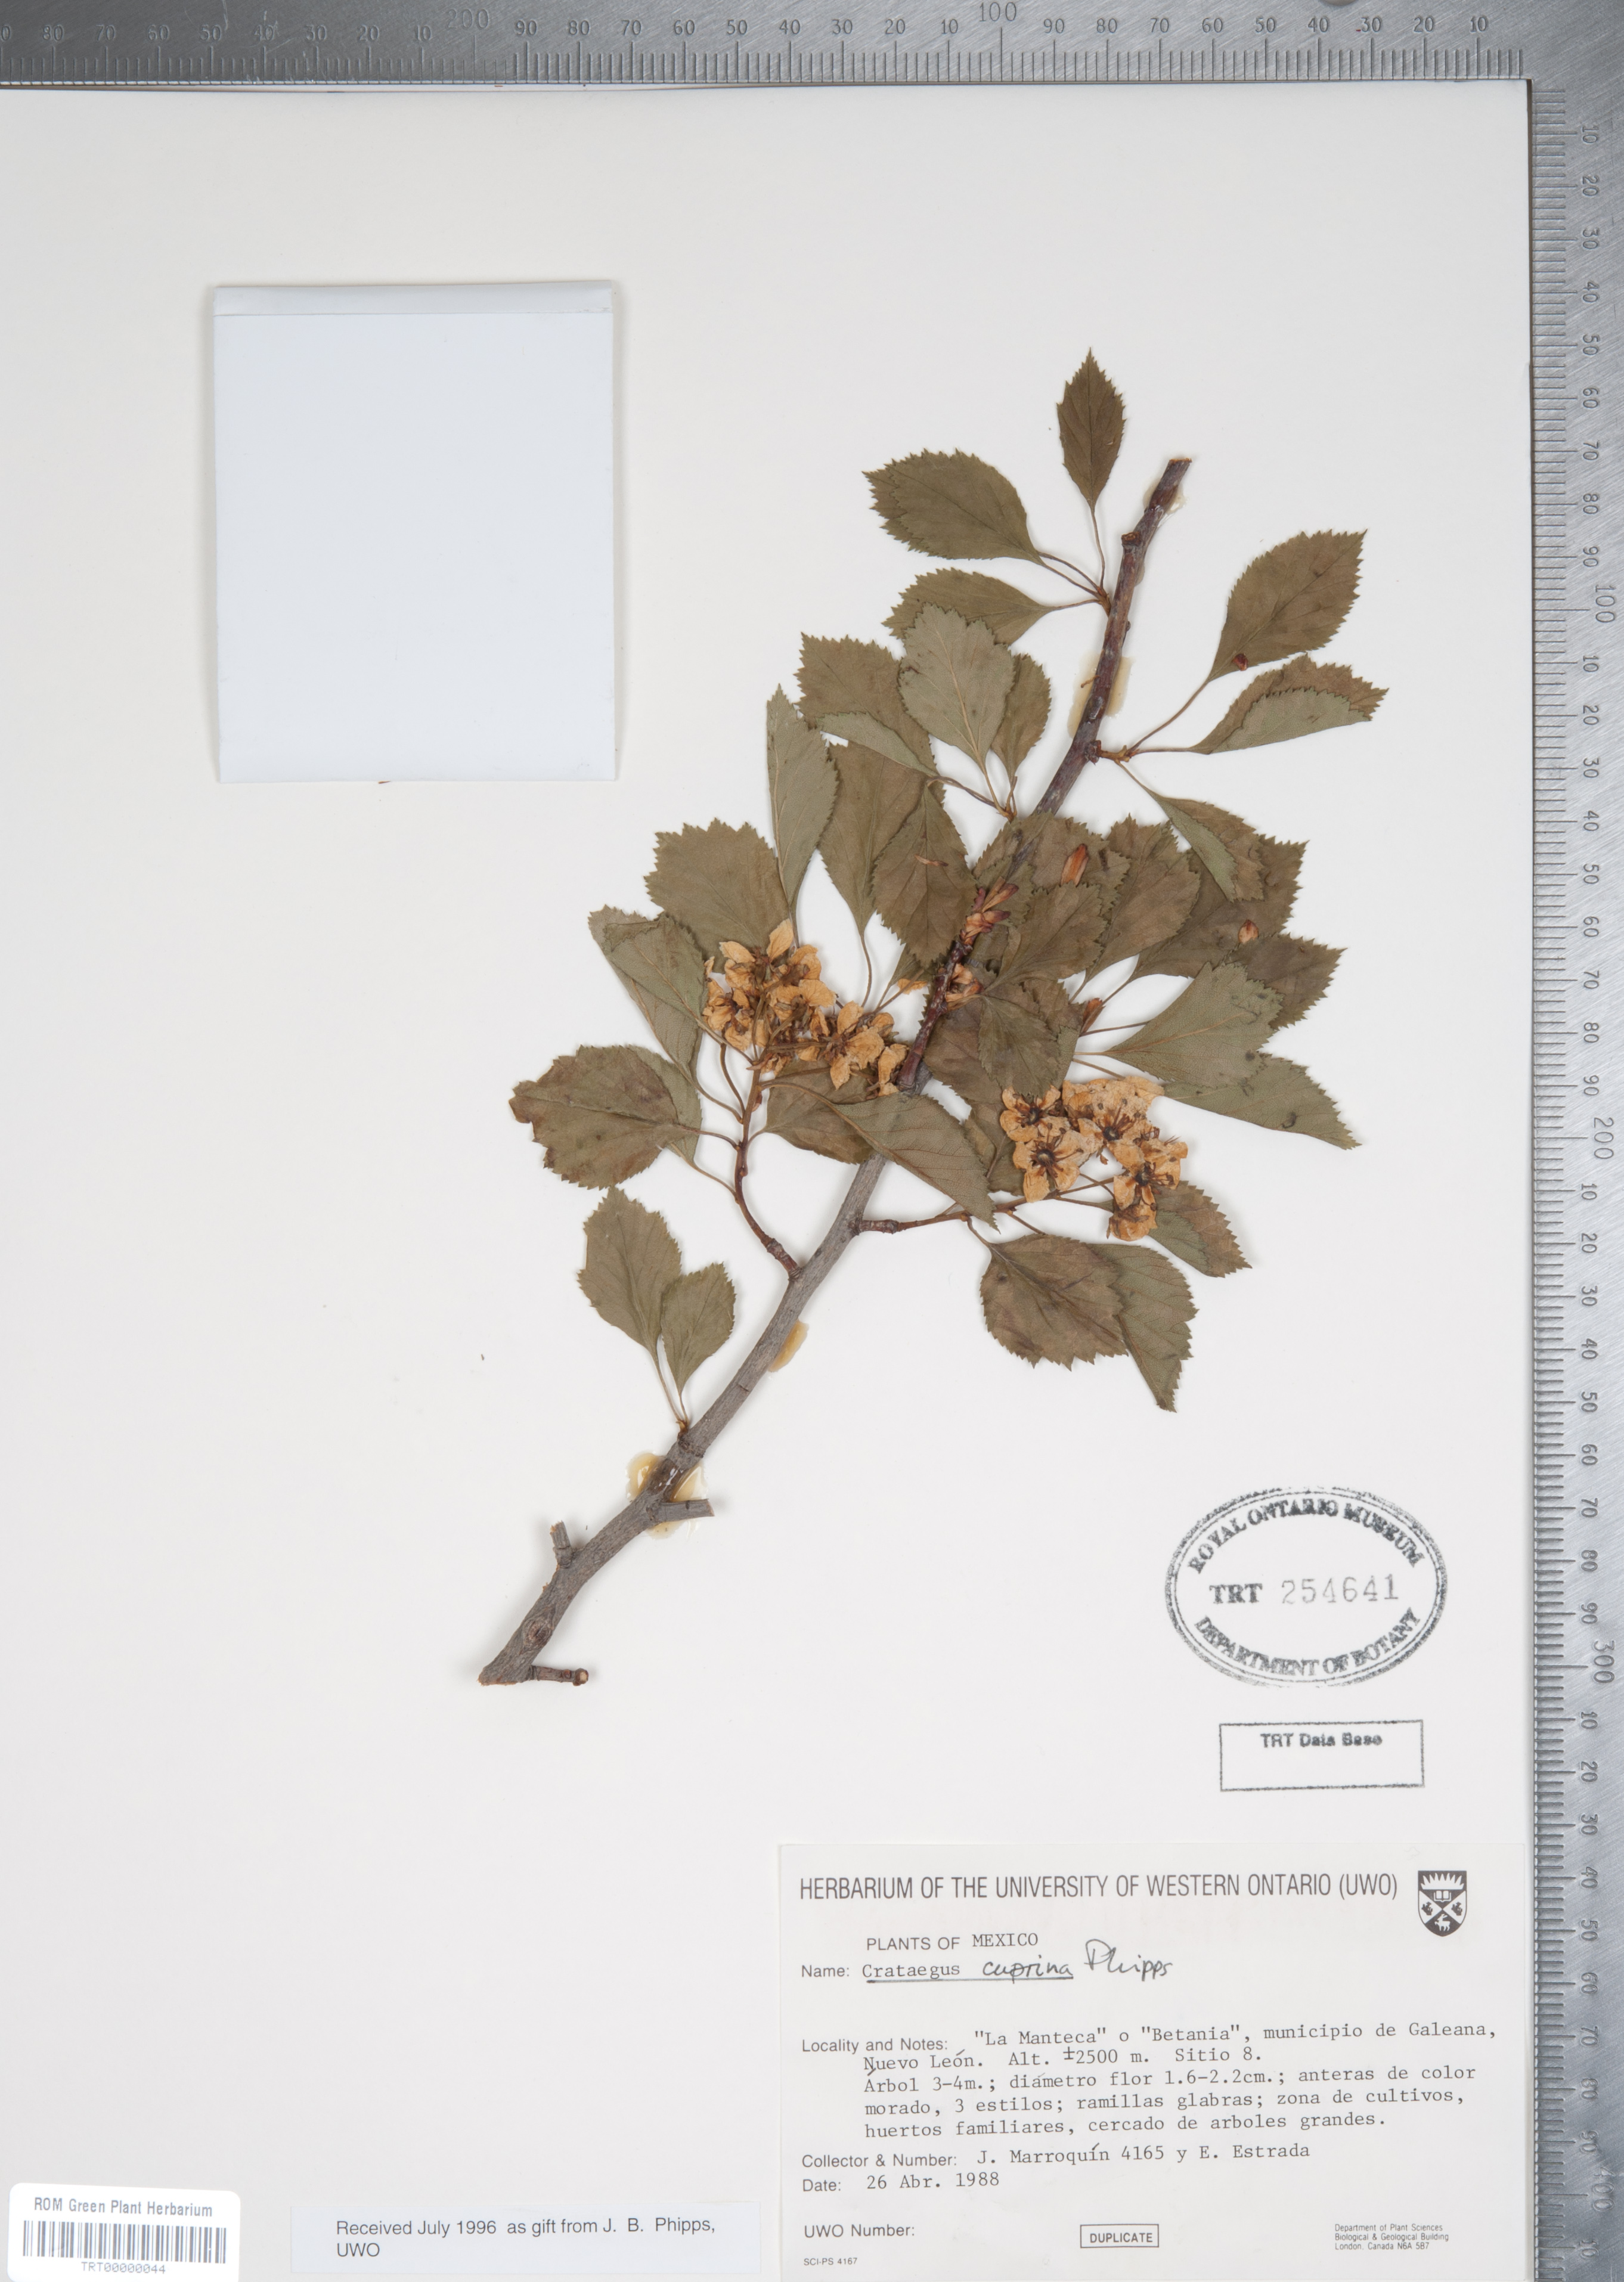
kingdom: Plantae
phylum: Tracheophyta
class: Magnoliopsida
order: Rosales
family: Rosaceae
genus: Crataegus
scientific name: Crataegus cuprina
